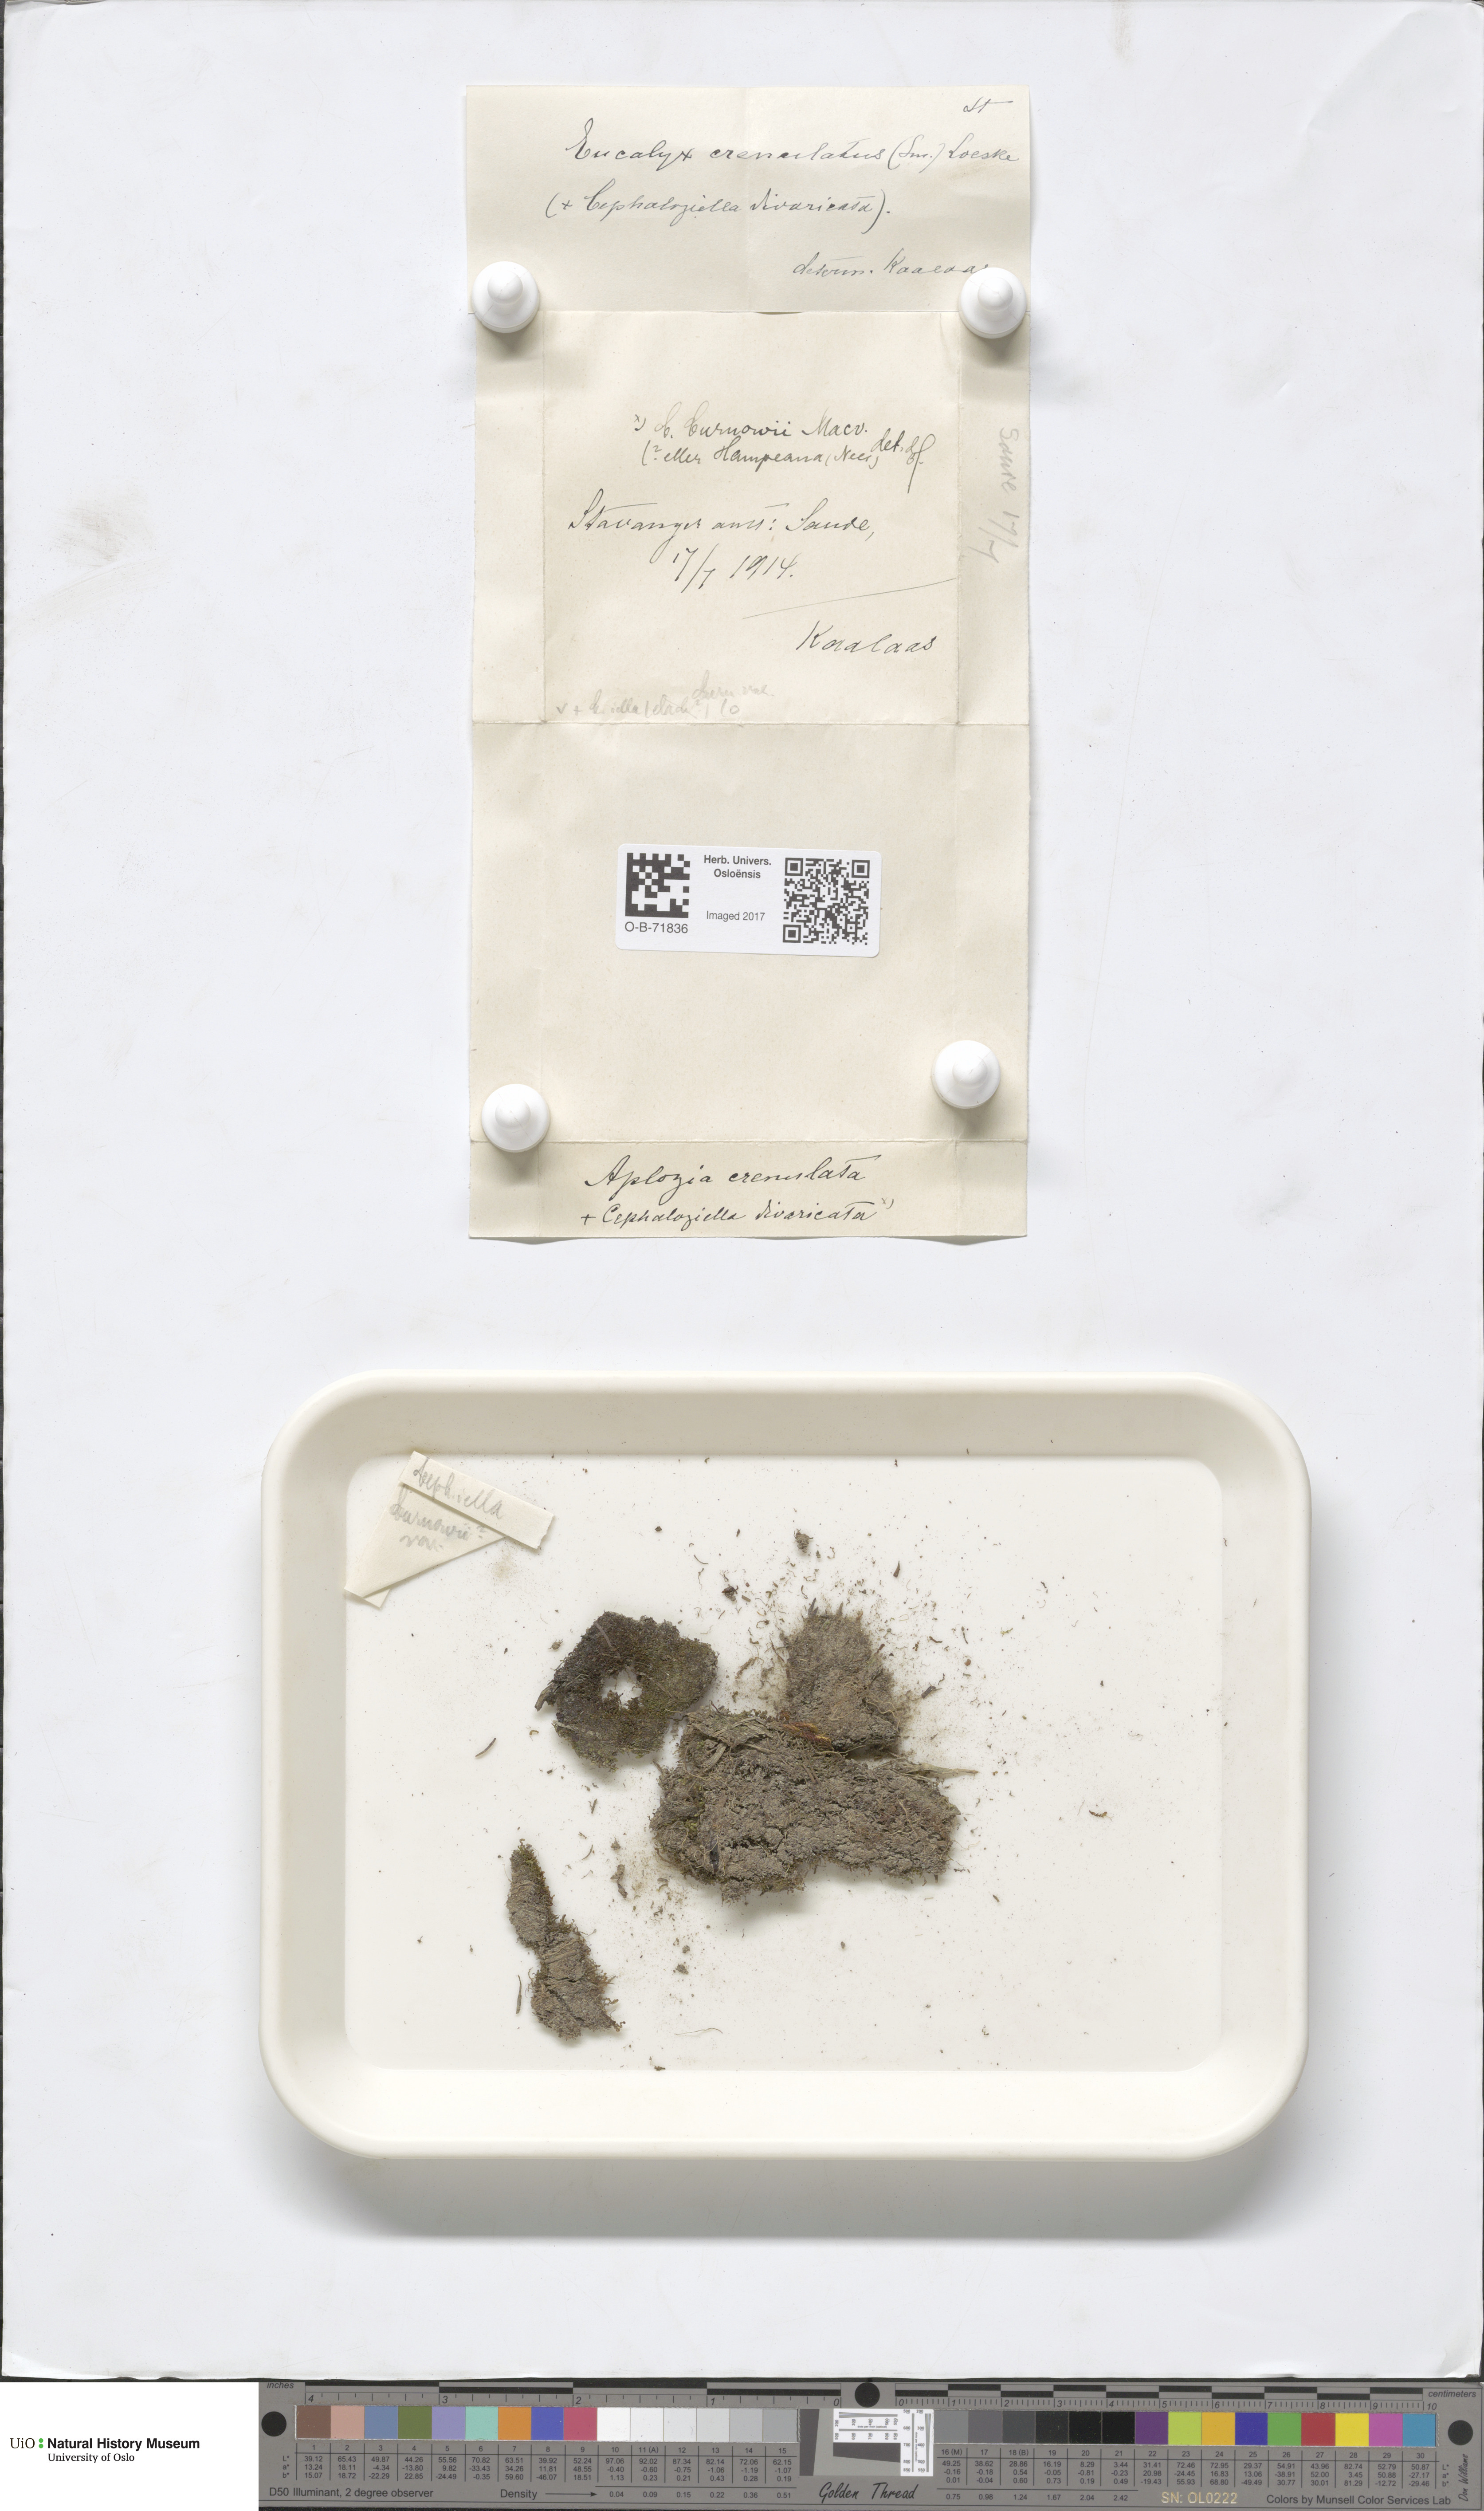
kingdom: Plantae
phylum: Marchantiophyta
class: Jungermanniopsida
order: Jungermanniales
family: Cephaloziellaceae
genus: Cephaloziella
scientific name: Cephaloziella hampeana
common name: Hampe s threadwort
